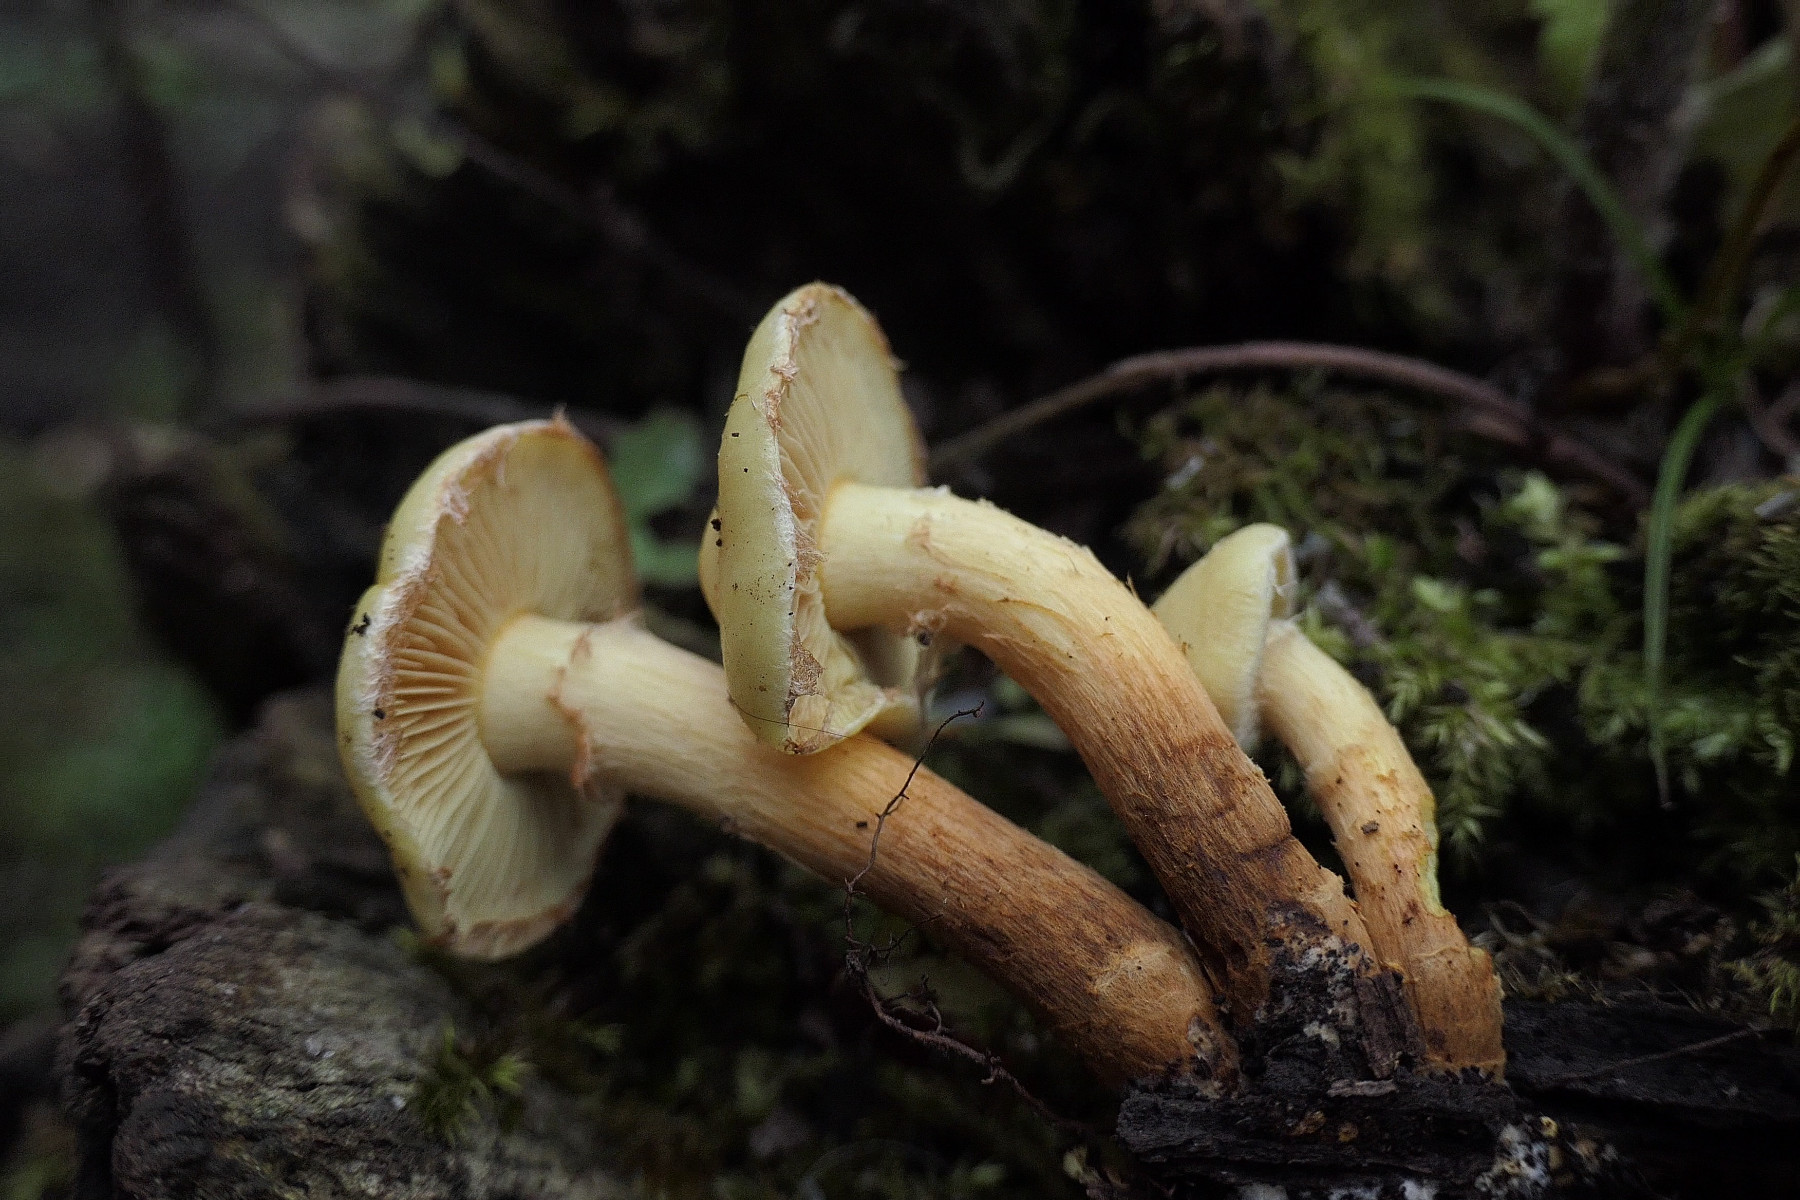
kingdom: Fungi
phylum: Basidiomycota
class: Agaricomycetes
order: Agaricales
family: Hymenogastraceae
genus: Flammula
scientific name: Flammula alnicola
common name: elle-skælhat
